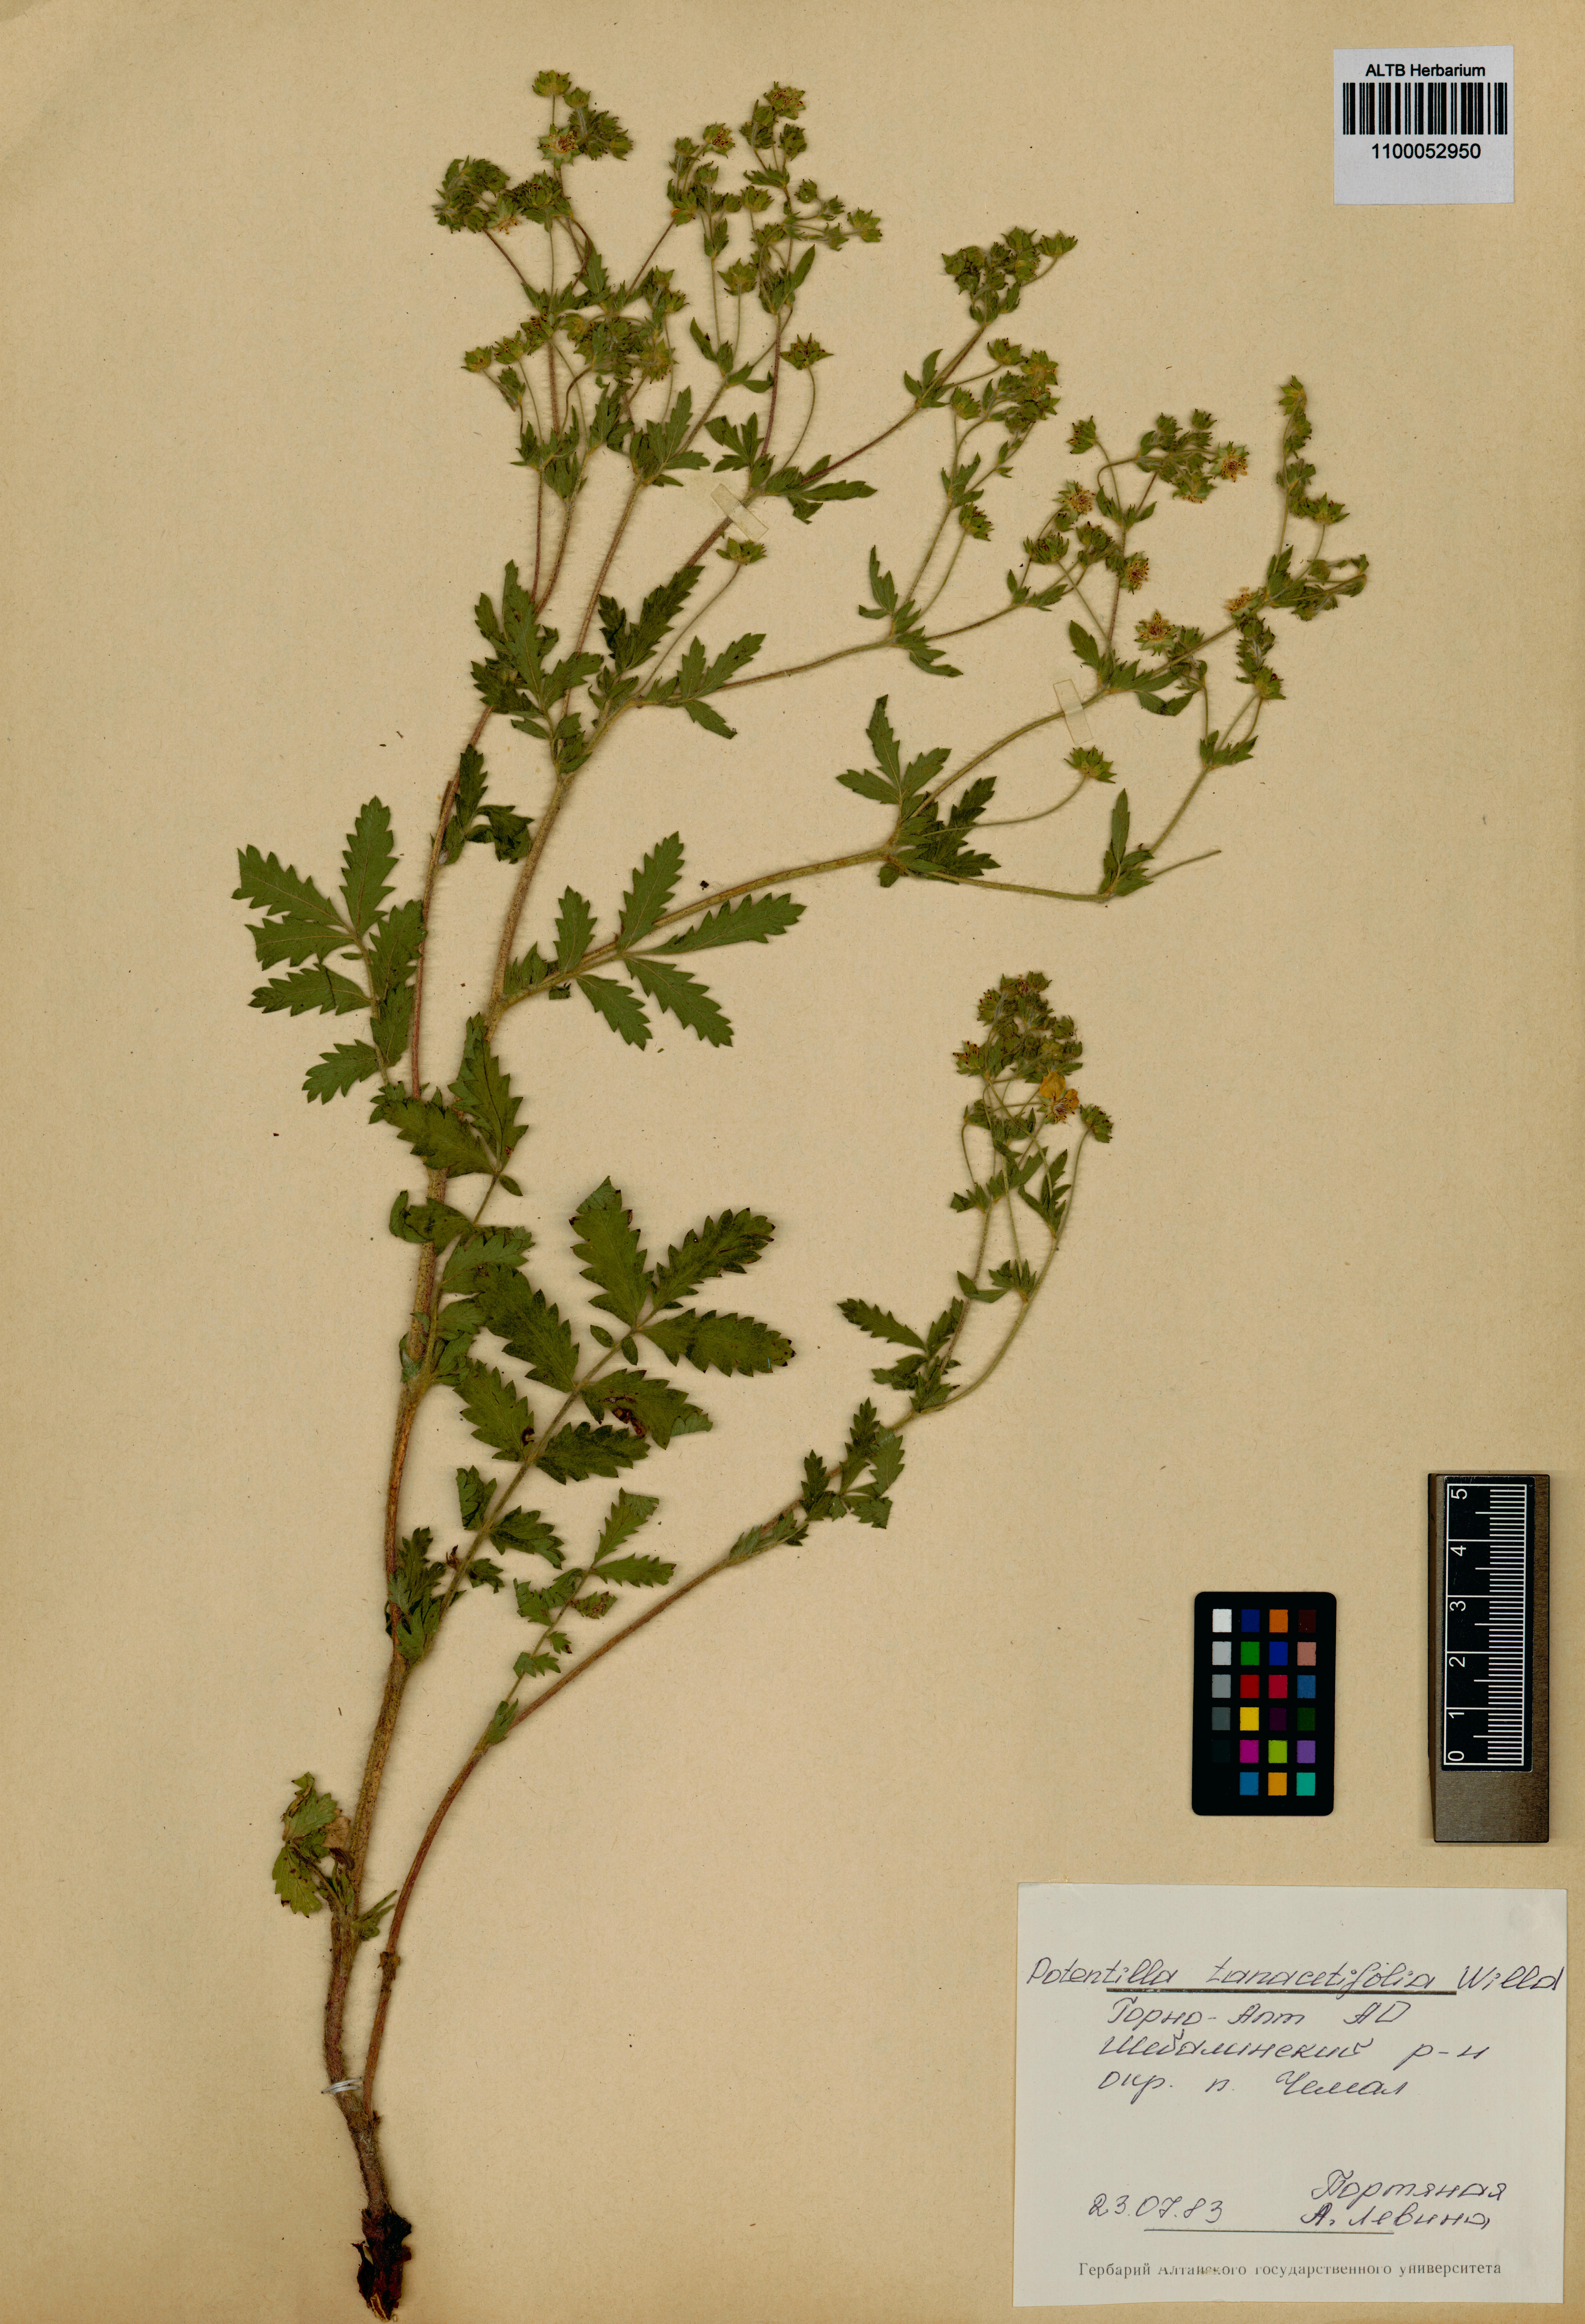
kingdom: Plantae
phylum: Tracheophyta
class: Magnoliopsida
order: Rosales
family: Rosaceae
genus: Potentilla
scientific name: Potentilla tanacetifolia
